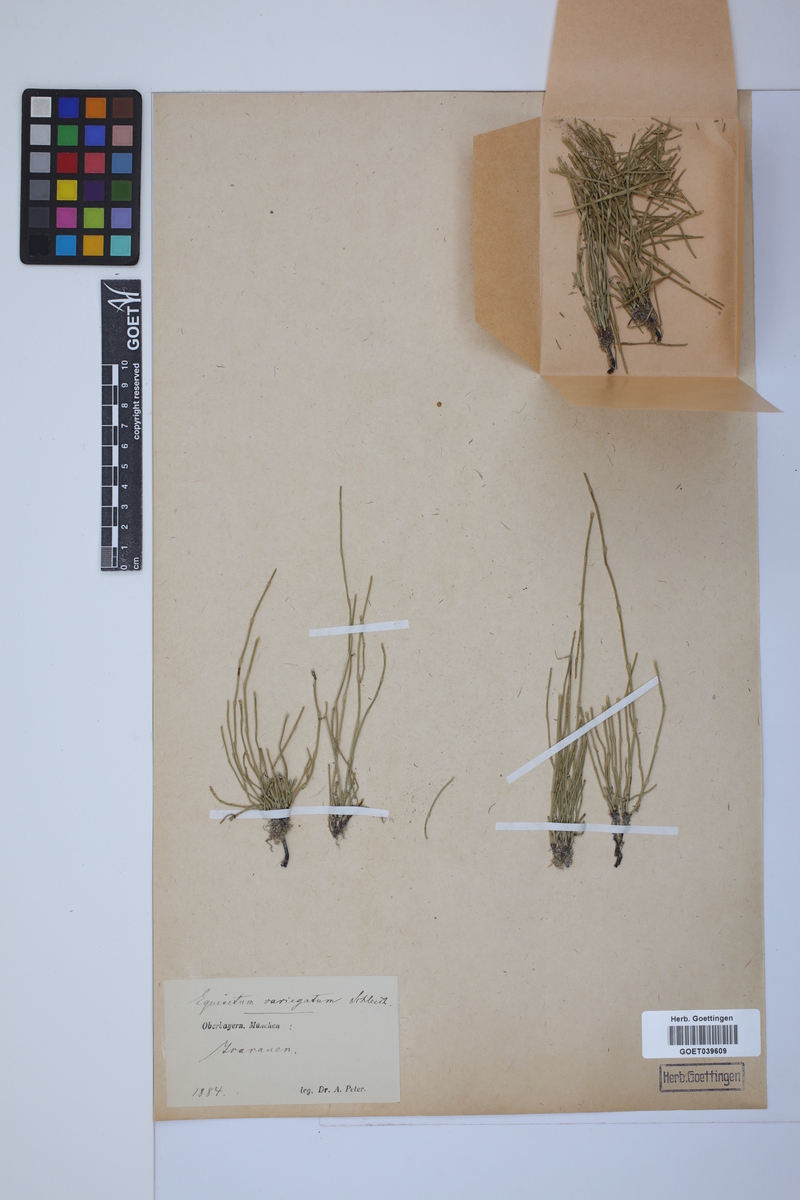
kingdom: Plantae
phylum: Tracheophyta
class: Polypodiopsida
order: Equisetales
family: Equisetaceae
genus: Equisetum
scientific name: Equisetum variegatum
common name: Variegated horsetail
